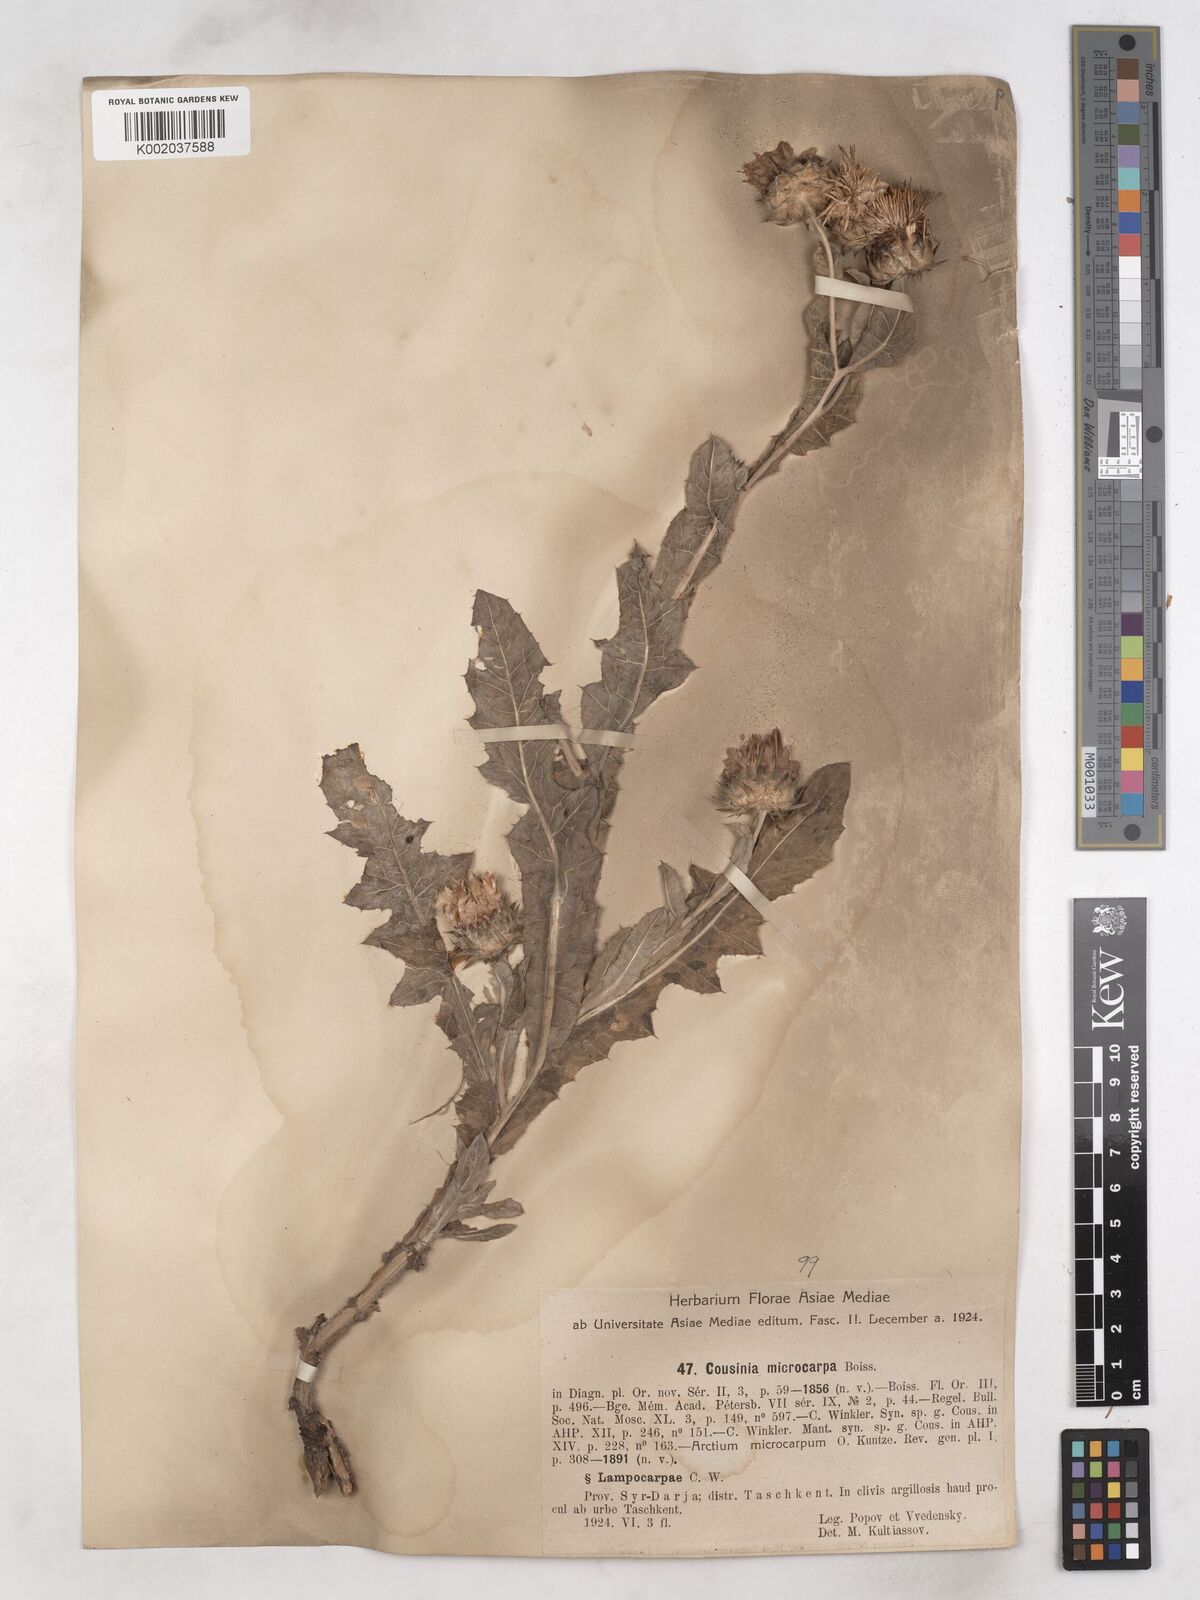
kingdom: Plantae
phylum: Tracheophyta
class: Magnoliopsida
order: Asterales
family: Asteraceae
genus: Cousinia
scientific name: Cousinia microcarpa
